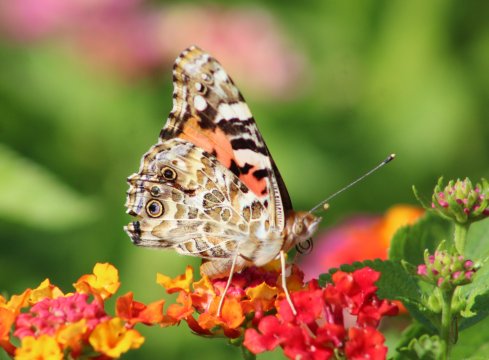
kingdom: Animalia
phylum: Arthropoda
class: Insecta
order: Lepidoptera
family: Nymphalidae
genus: Vanessa
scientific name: Vanessa cardui
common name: Painted Lady
